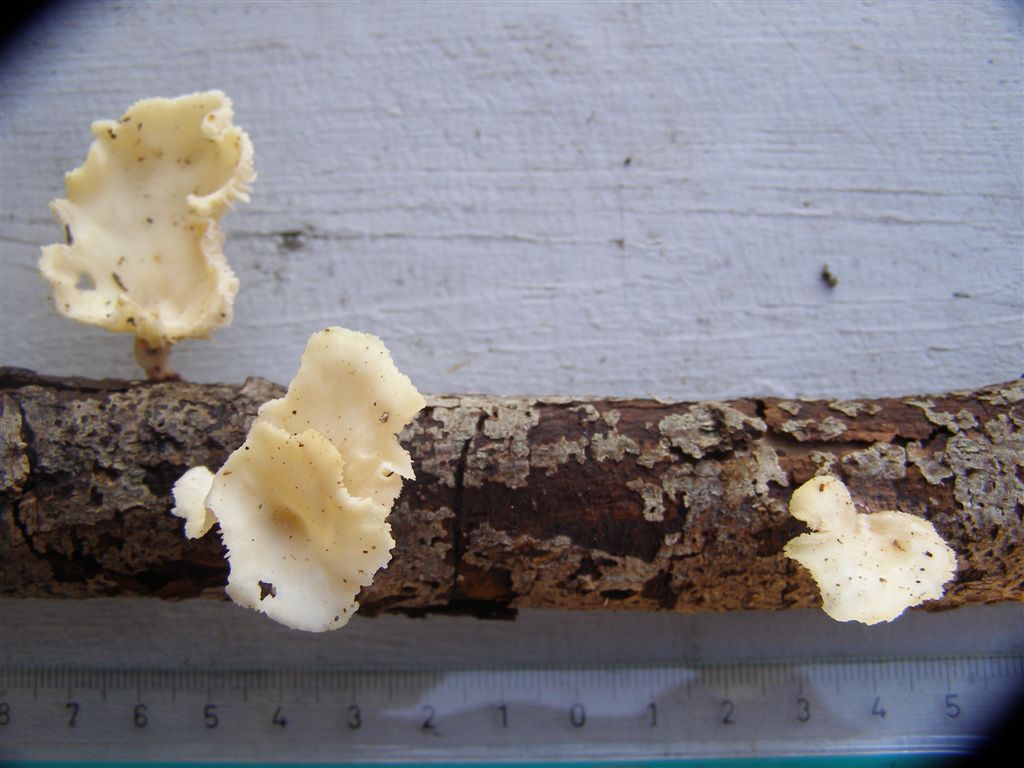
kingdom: Fungi
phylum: Basidiomycota
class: Agaricomycetes
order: Polyporales
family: Polyporaceae
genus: Neofavolus
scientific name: Neofavolus suavissimus
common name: anishat
